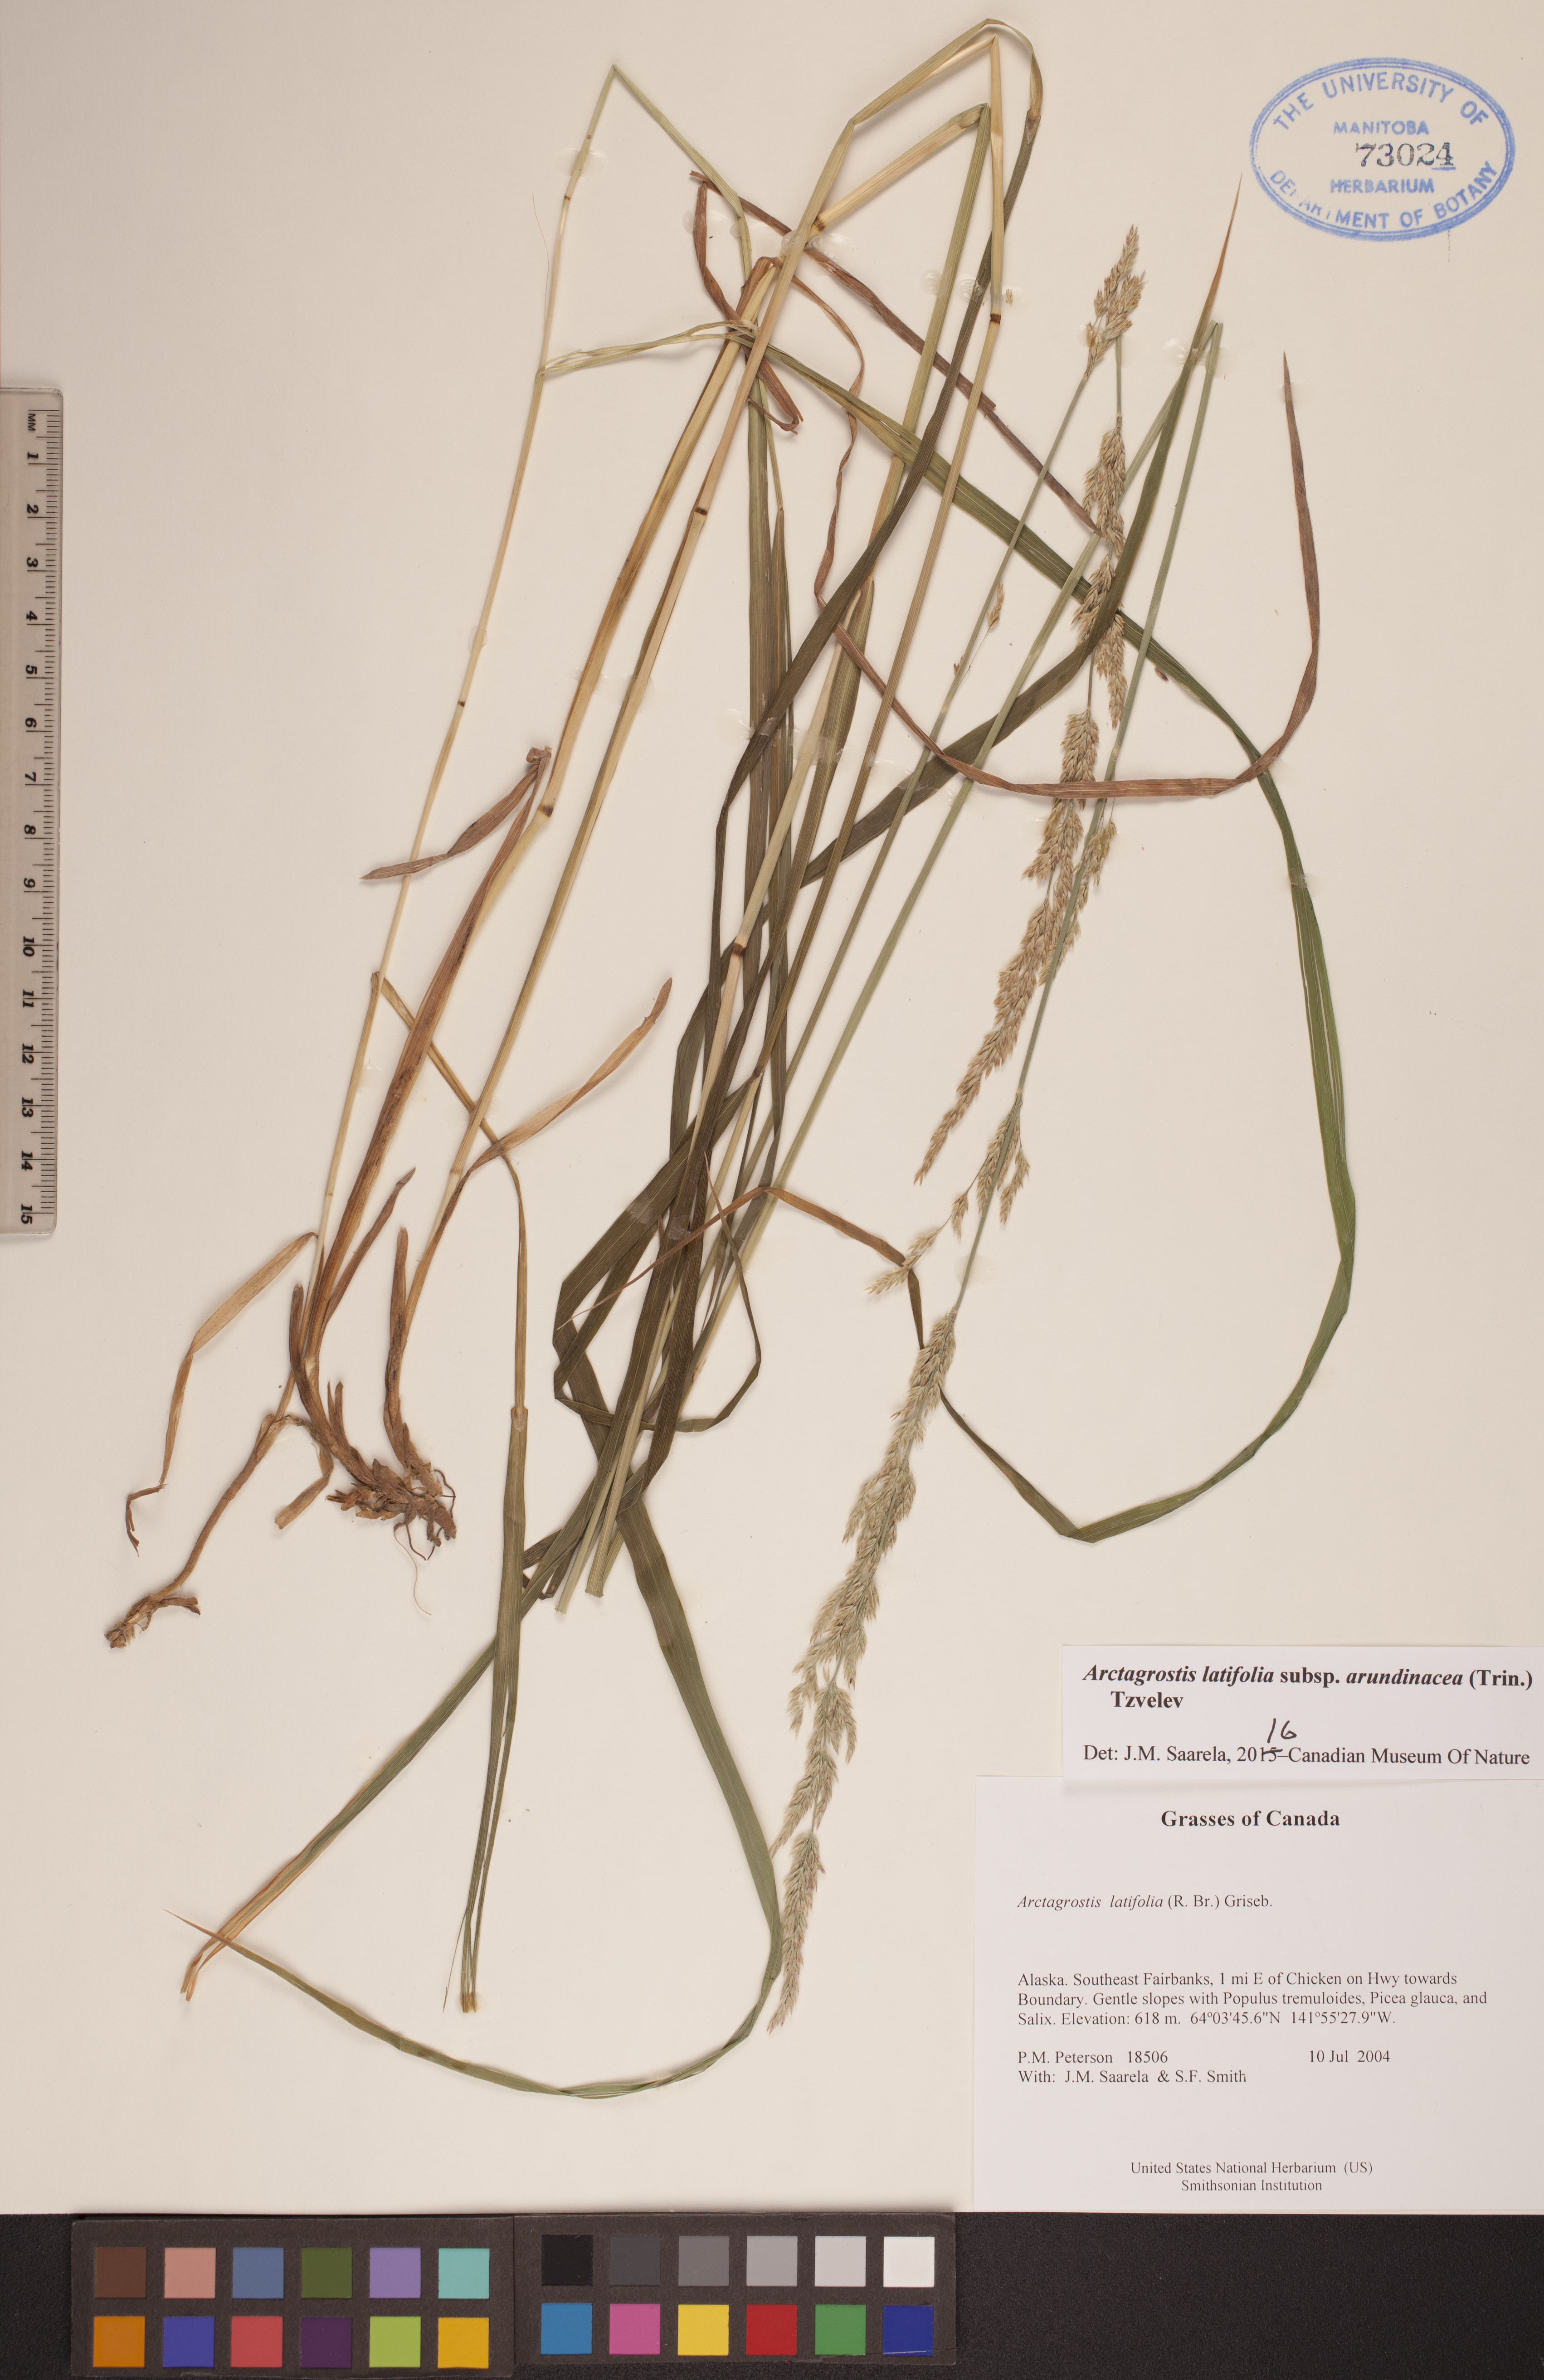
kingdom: Plantae
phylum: Tracheophyta
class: Liliopsida
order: Poales
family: Poaceae
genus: Arctagrostis
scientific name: Arctagrostis arundinacea
